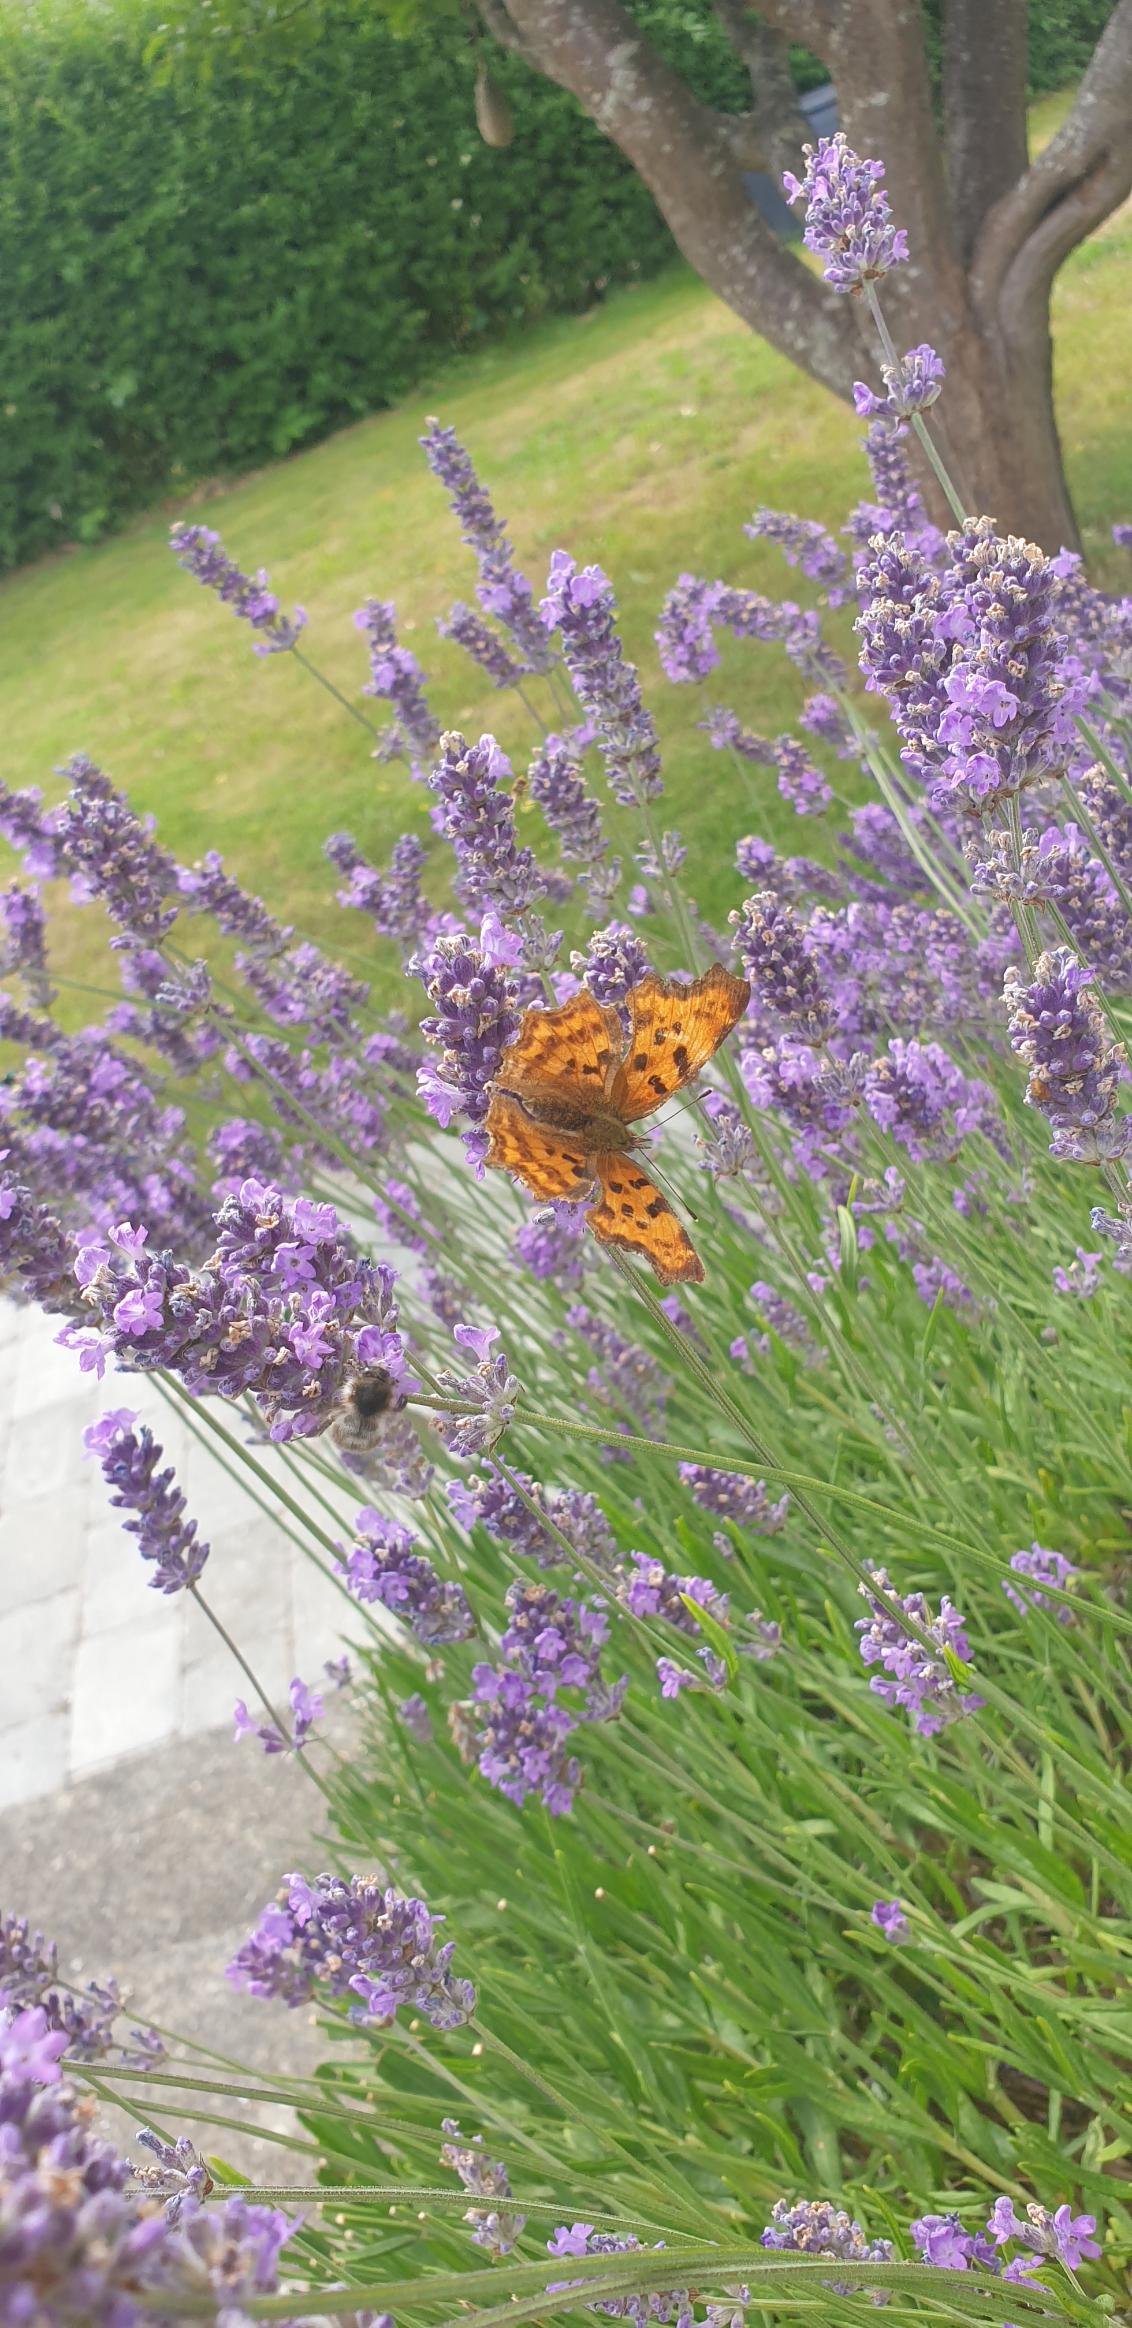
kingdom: Animalia
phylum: Arthropoda
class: Insecta
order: Lepidoptera
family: Nymphalidae
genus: Polygonia
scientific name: Polygonia c-album
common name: Det hvide C
